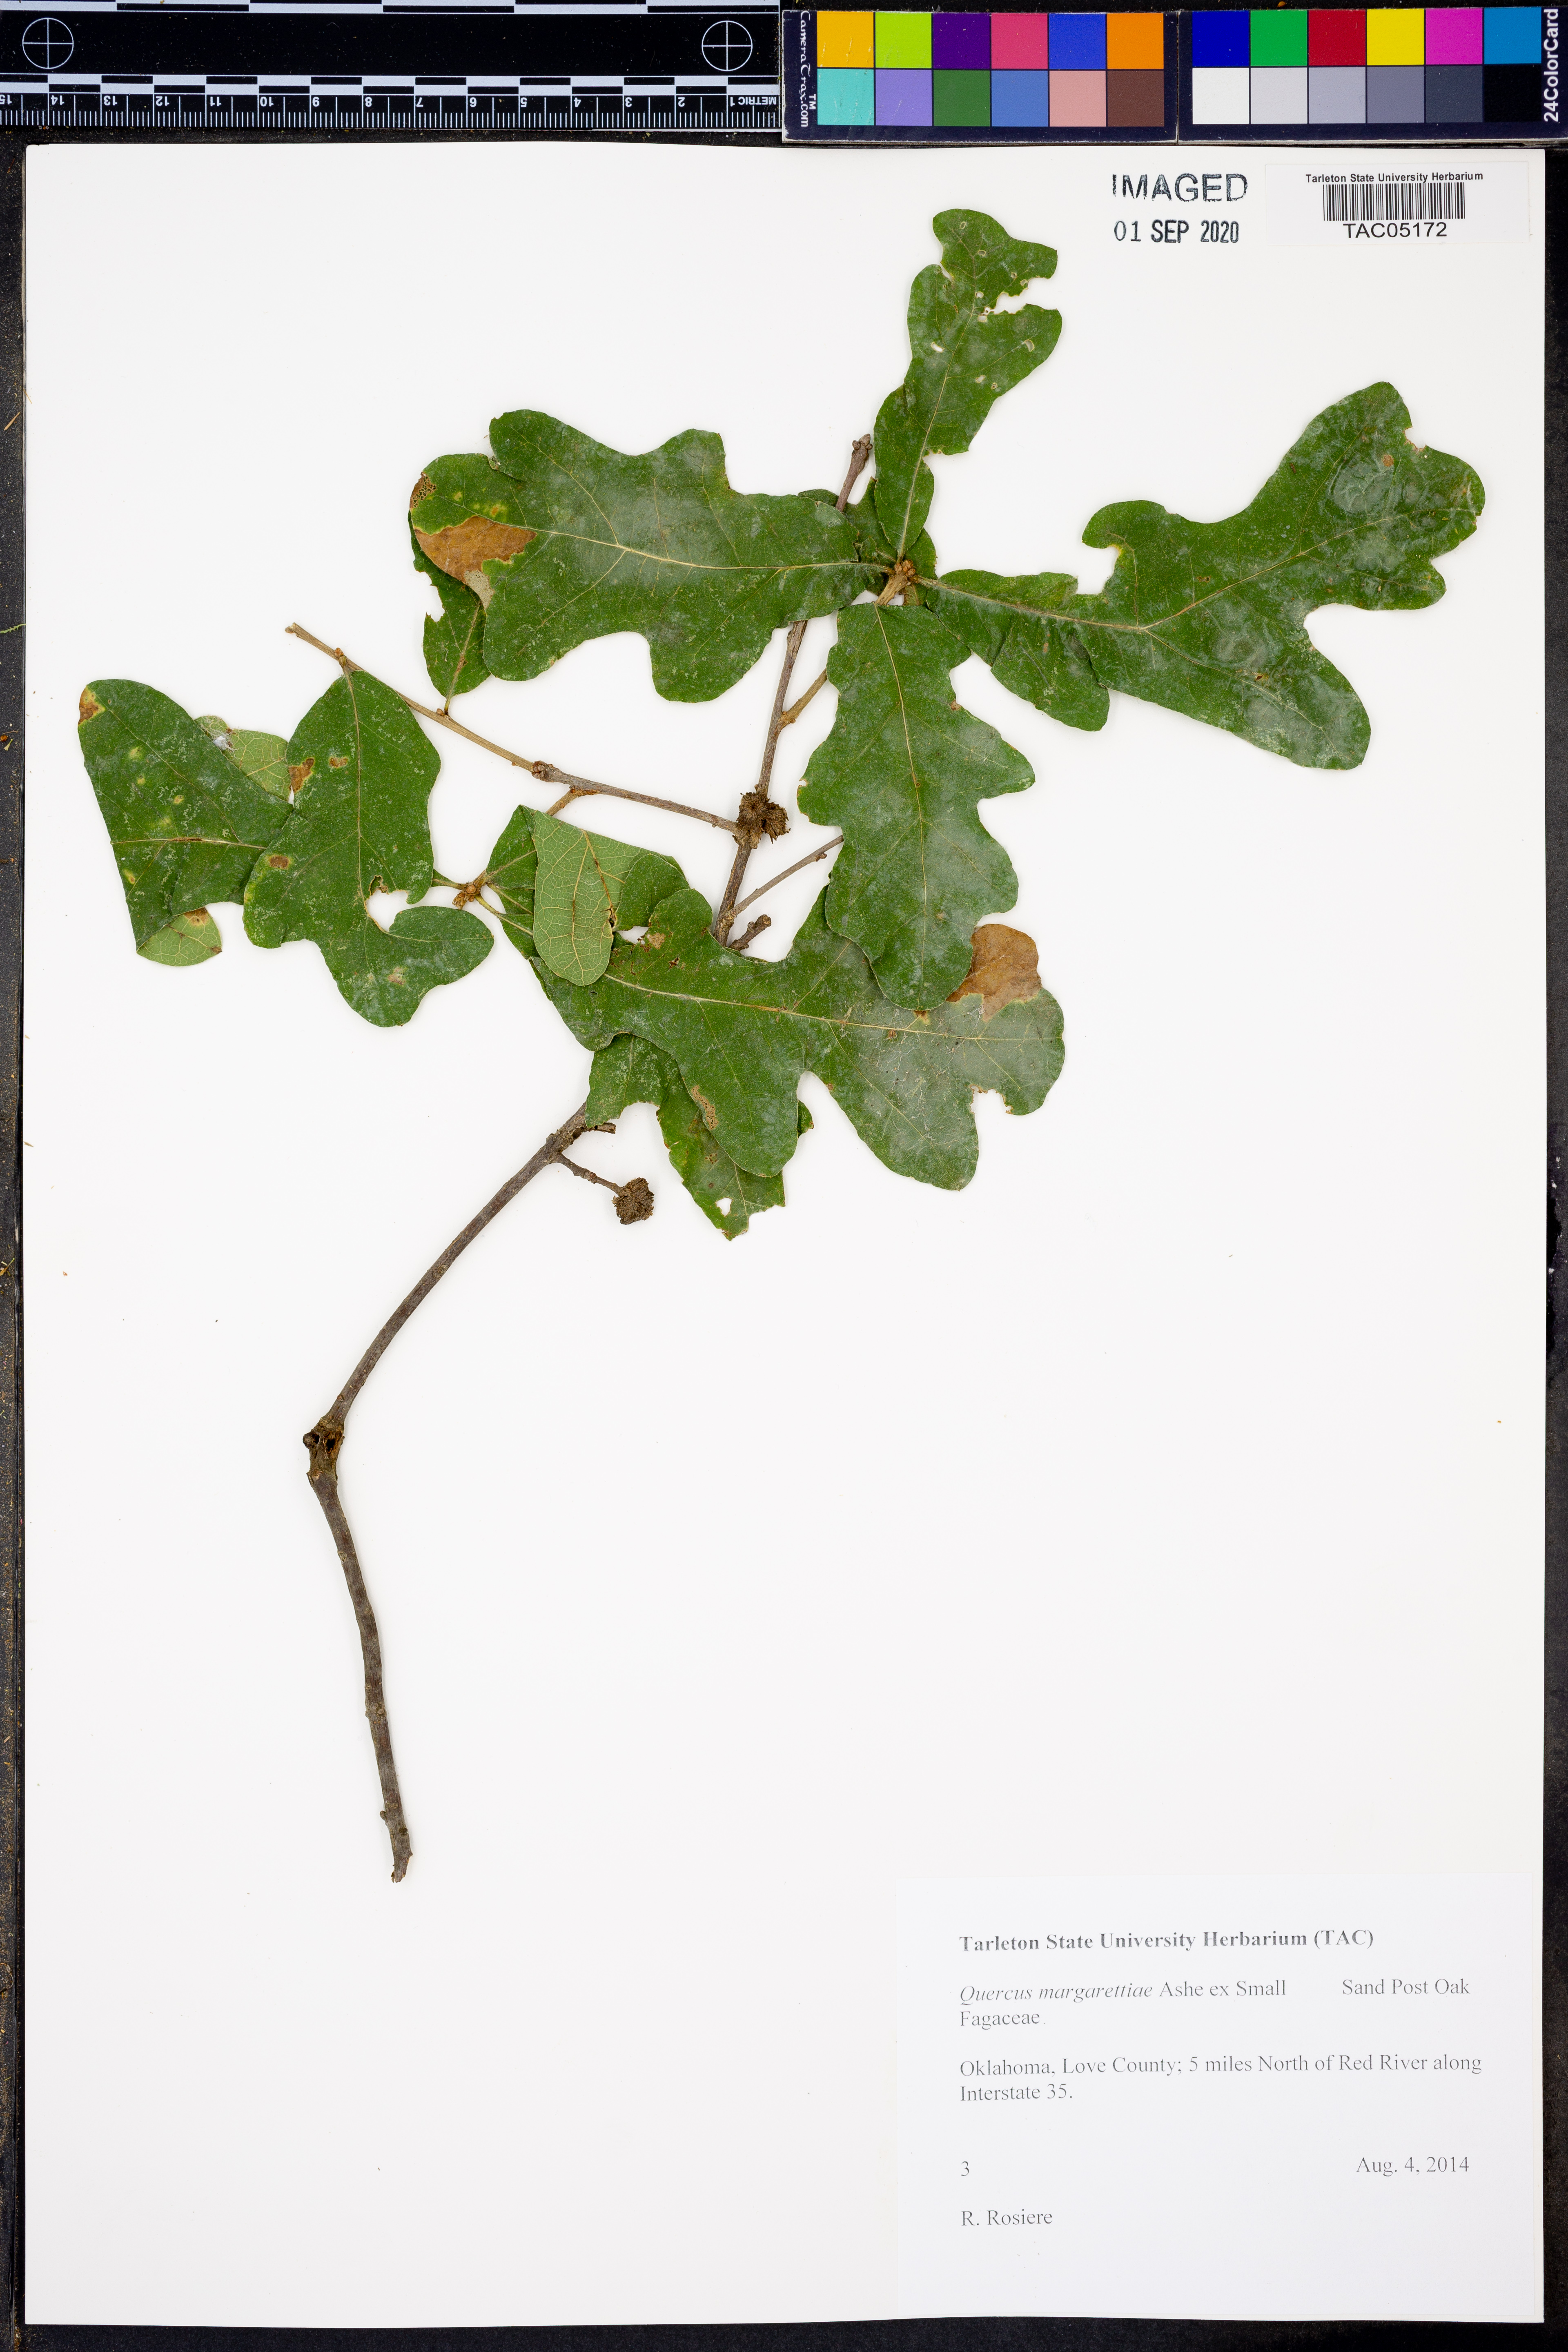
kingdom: Plantae
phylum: Tracheophyta
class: Magnoliopsida
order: Fagales
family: Fagaceae
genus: Quercus
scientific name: Quercus margaretiae
